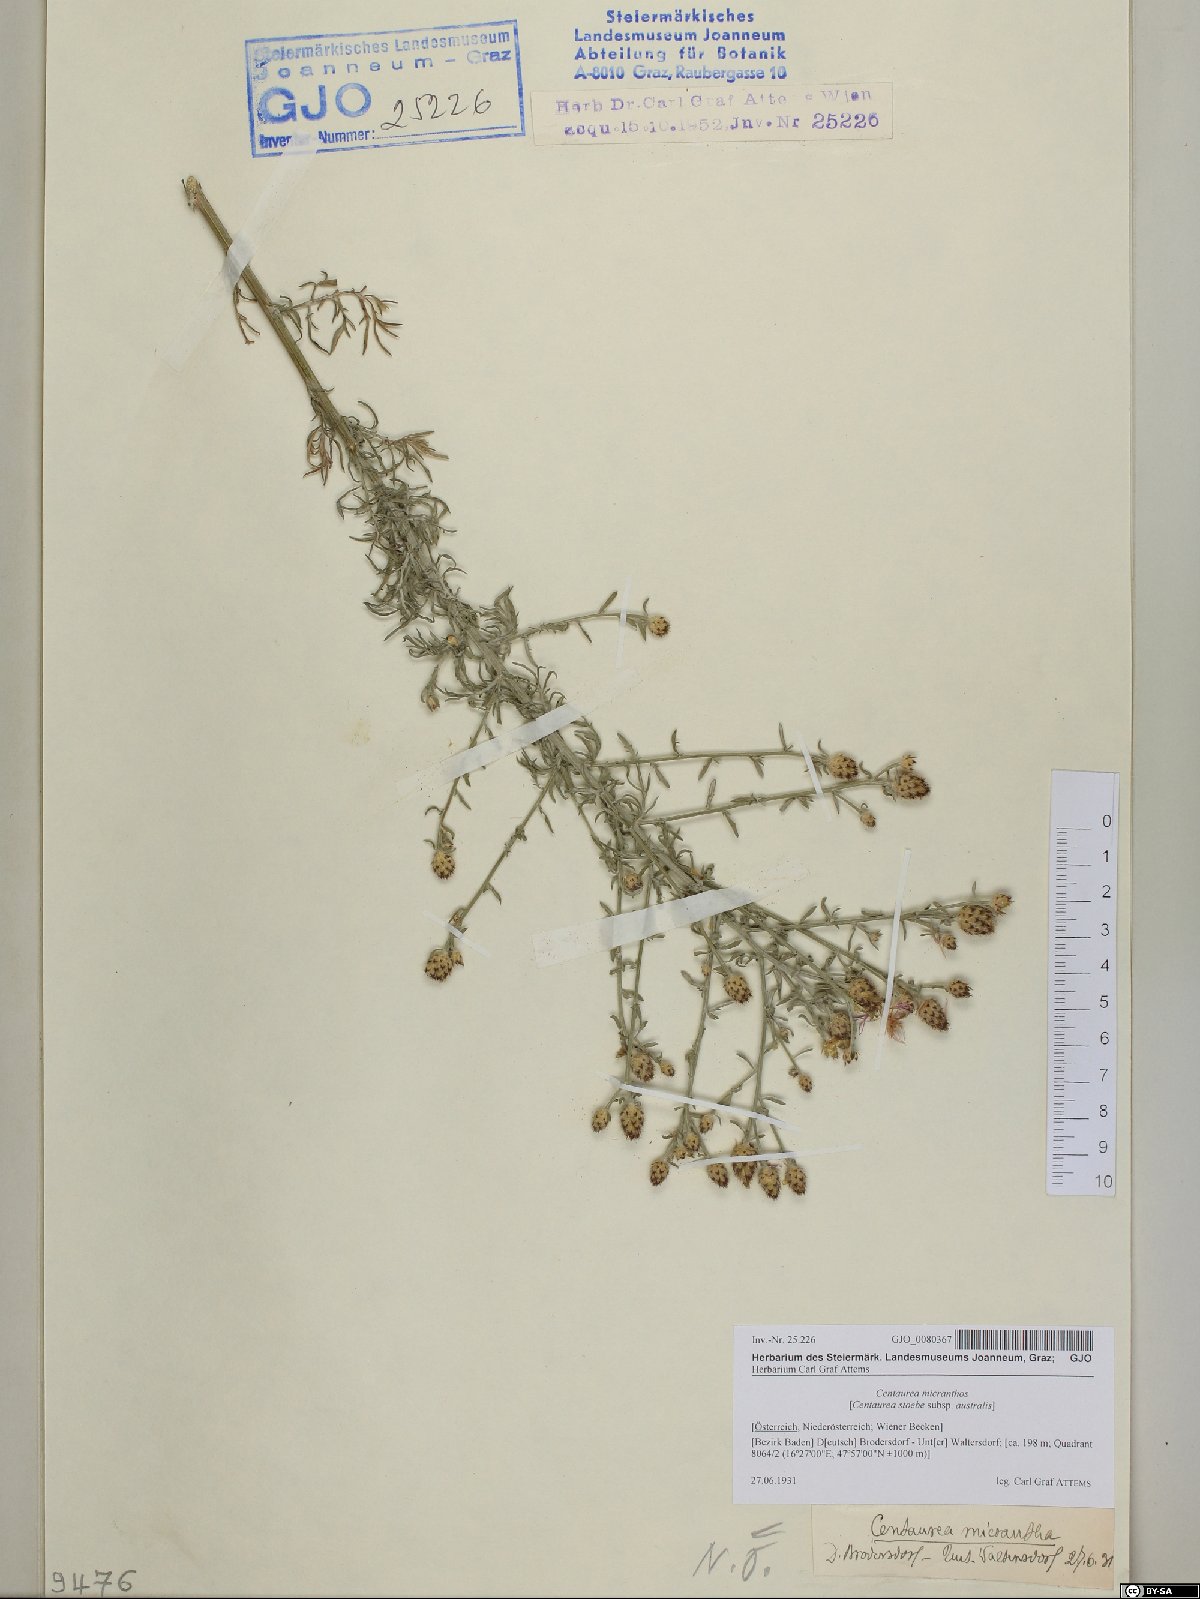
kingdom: Plantae
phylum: Tracheophyta
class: Magnoliopsida
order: Asterales
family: Asteraceae
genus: Centaurea
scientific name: Centaurea micranthos
